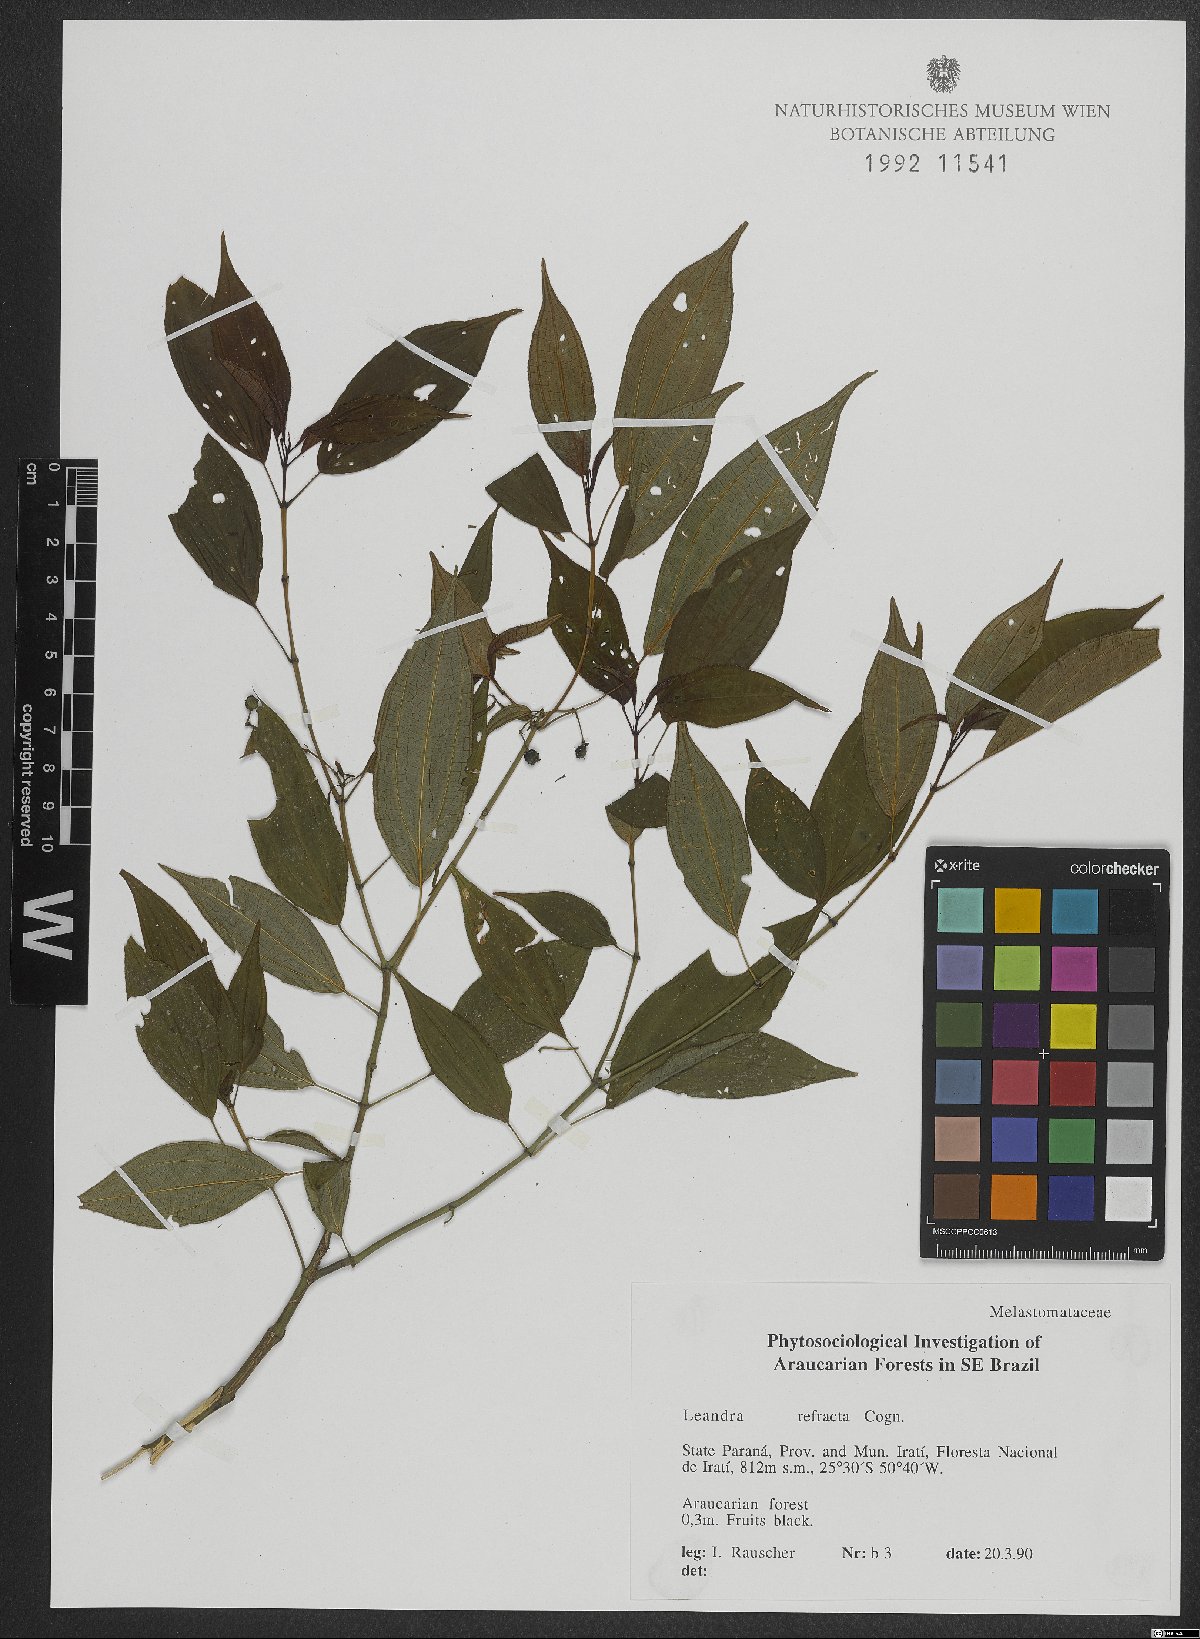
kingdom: Plantae
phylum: Tracheophyta
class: Magnoliopsida
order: Myrtales
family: Melastomataceae
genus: Miconia
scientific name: Miconia refracta
